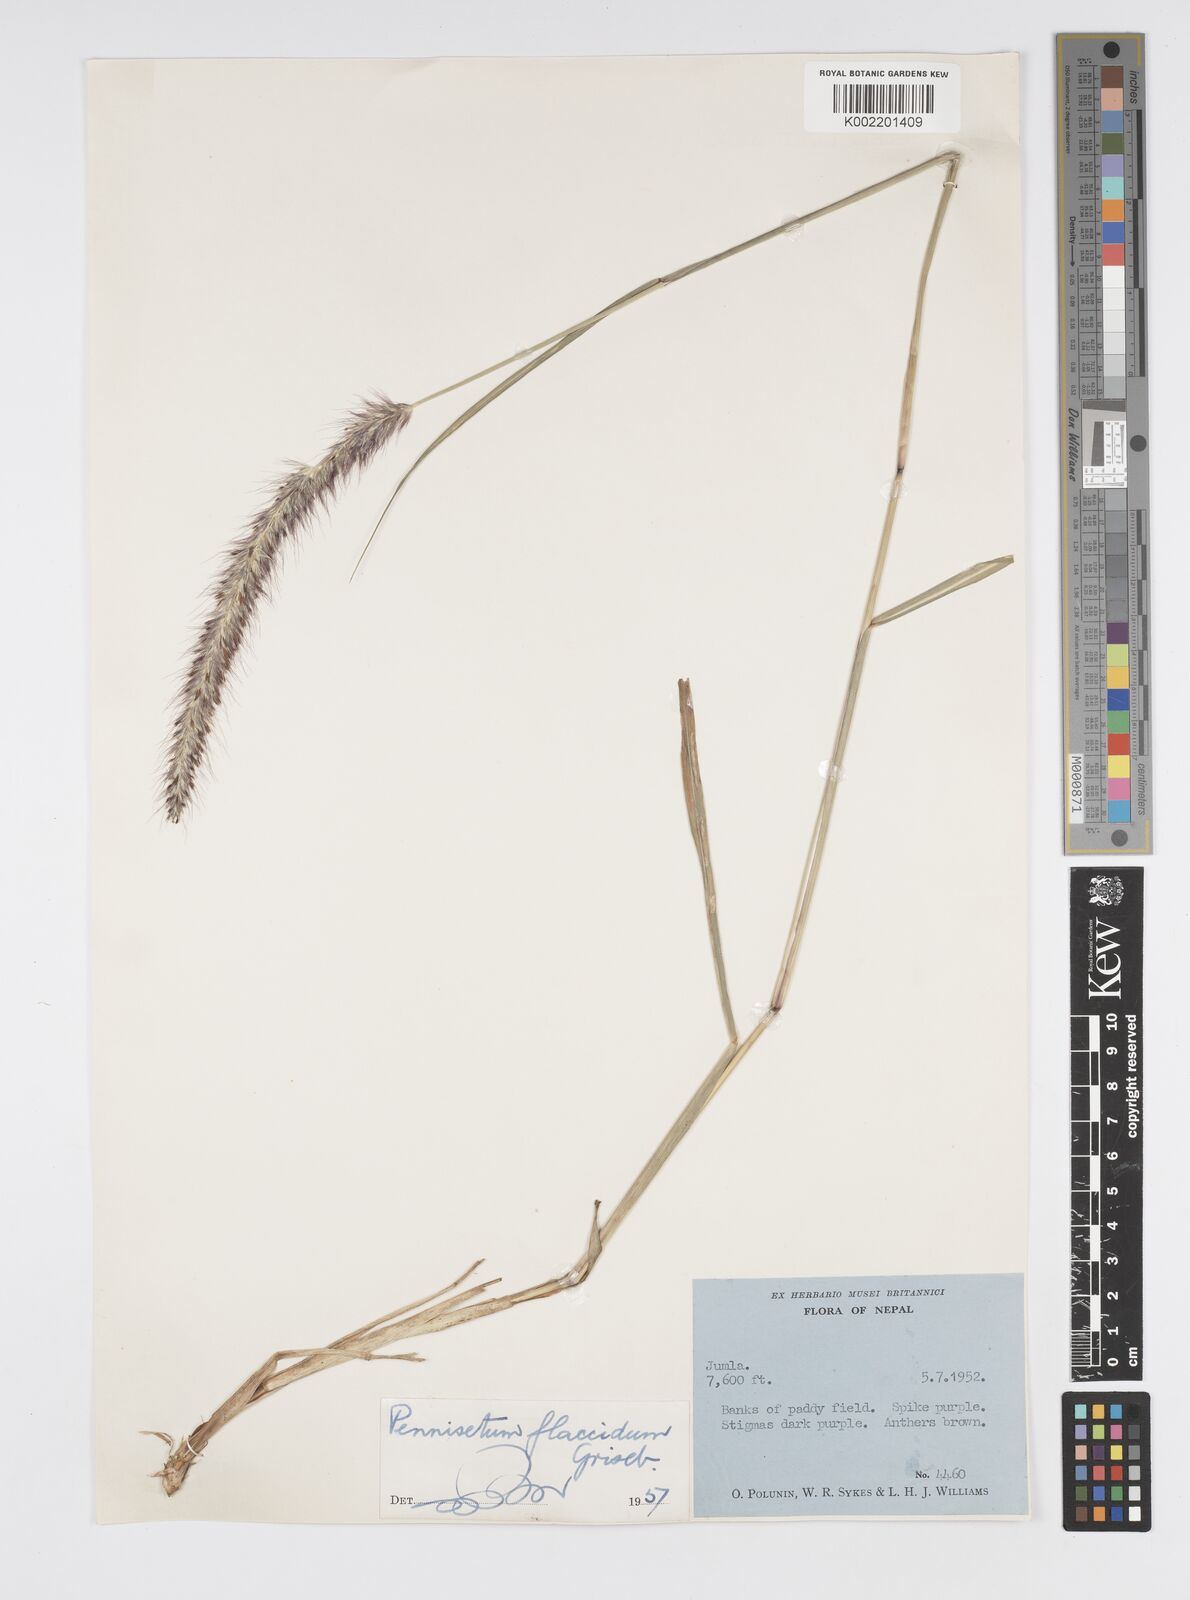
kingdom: Plantae
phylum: Tracheophyta
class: Liliopsida
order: Poales
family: Poaceae
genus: Cenchrus
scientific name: Cenchrus flaccidus
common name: Flaccid grass
